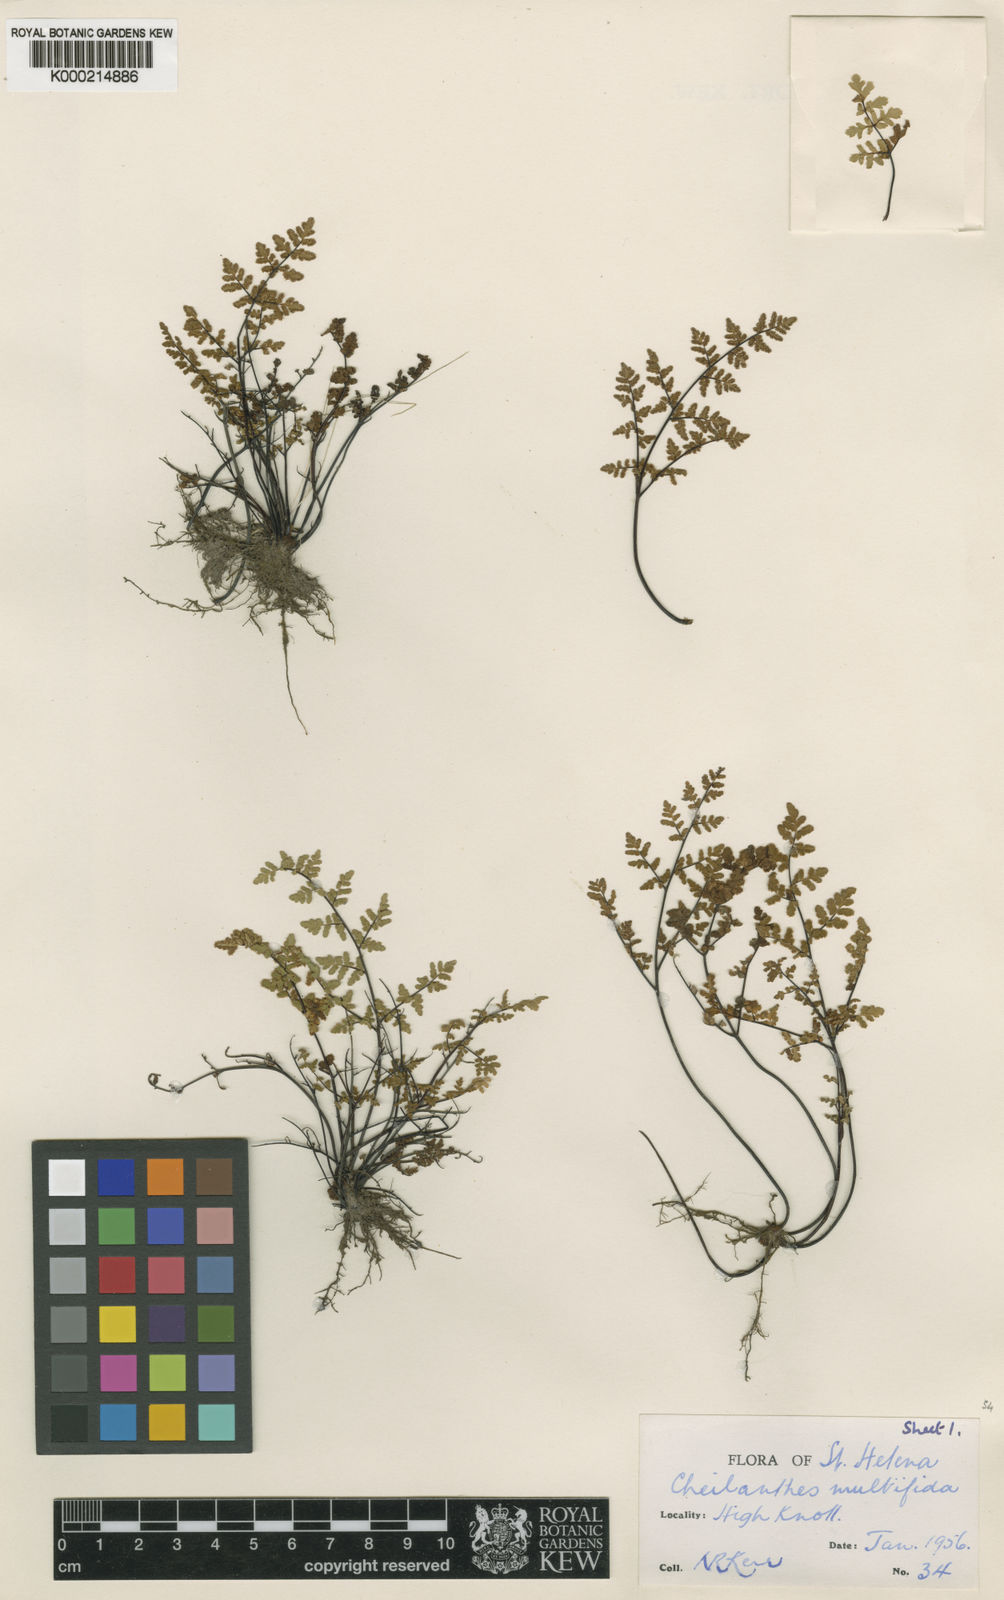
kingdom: Plantae
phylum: Tracheophyta
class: Polypodiopsida
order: Polypodiales
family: Pteridaceae
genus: Cheilanthes
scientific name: Cheilanthes multifida
